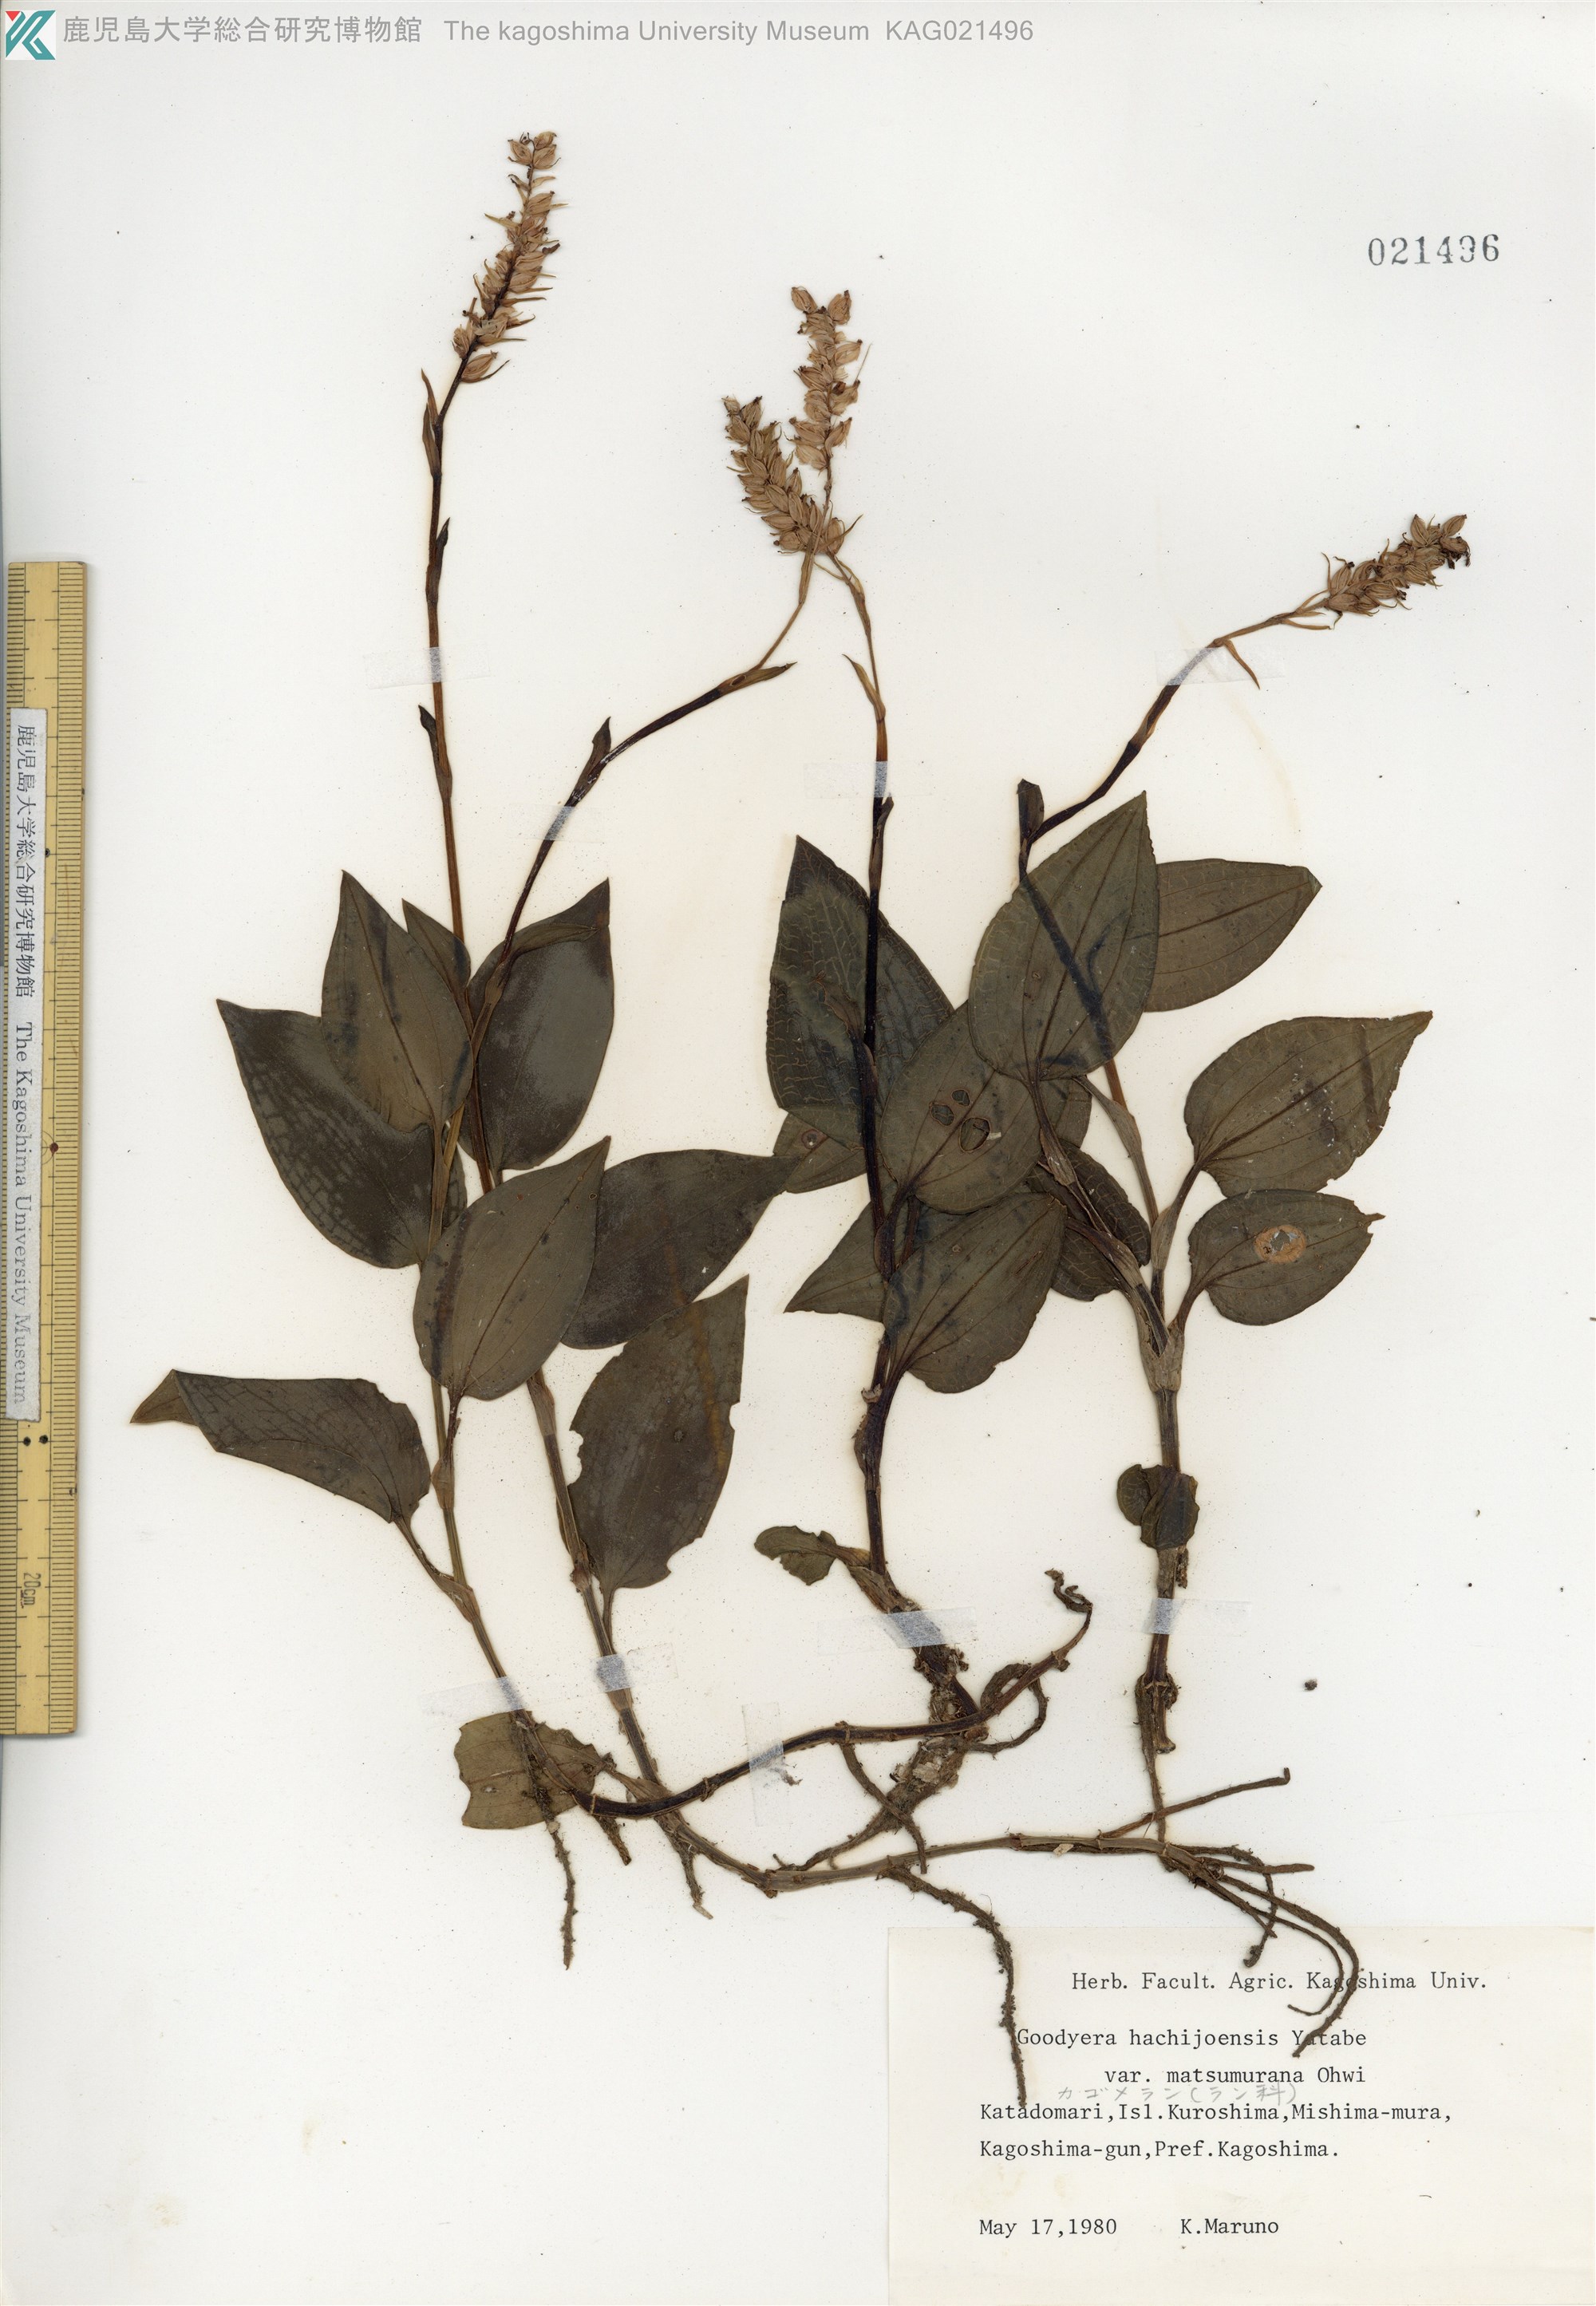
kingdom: Plantae
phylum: Tracheophyta
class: Liliopsida
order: Asparagales
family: Orchidaceae
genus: Goodyera
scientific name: Goodyera hachijoensis
